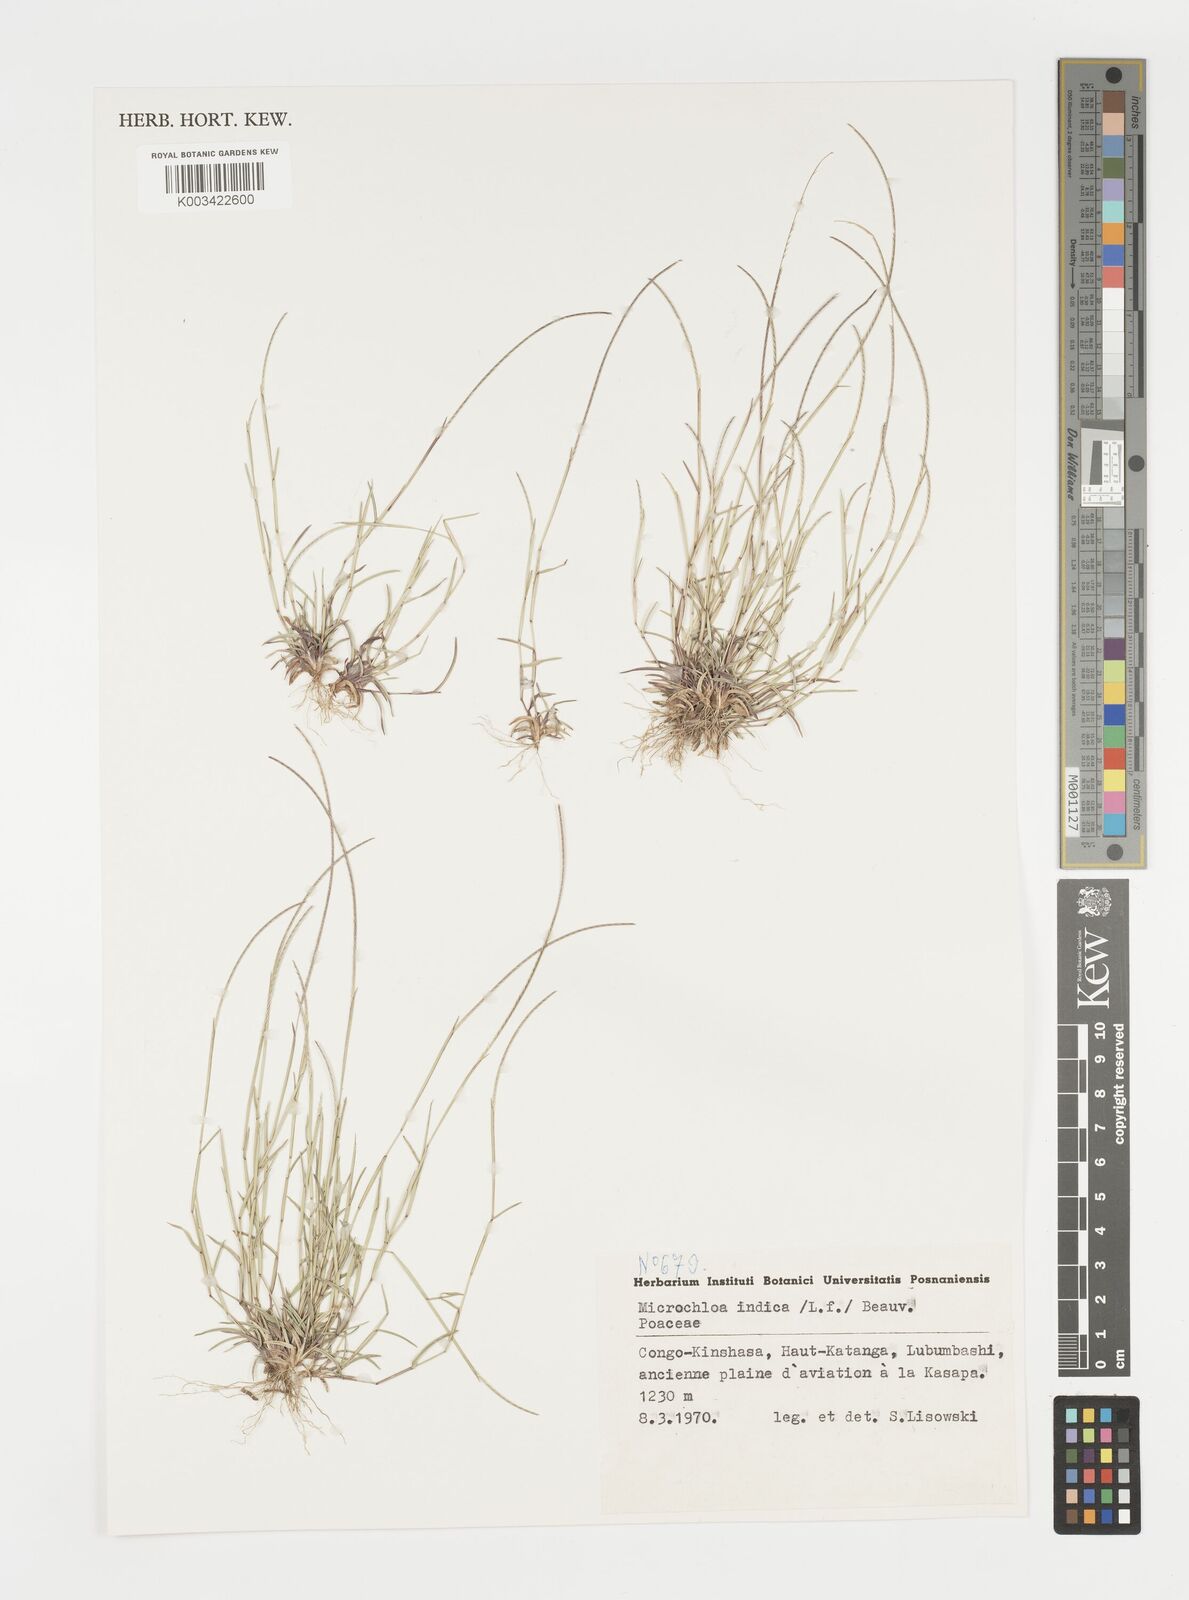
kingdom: Plantae
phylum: Tracheophyta
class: Liliopsida
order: Poales
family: Poaceae
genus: Microchloa
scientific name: Microchloa indica
